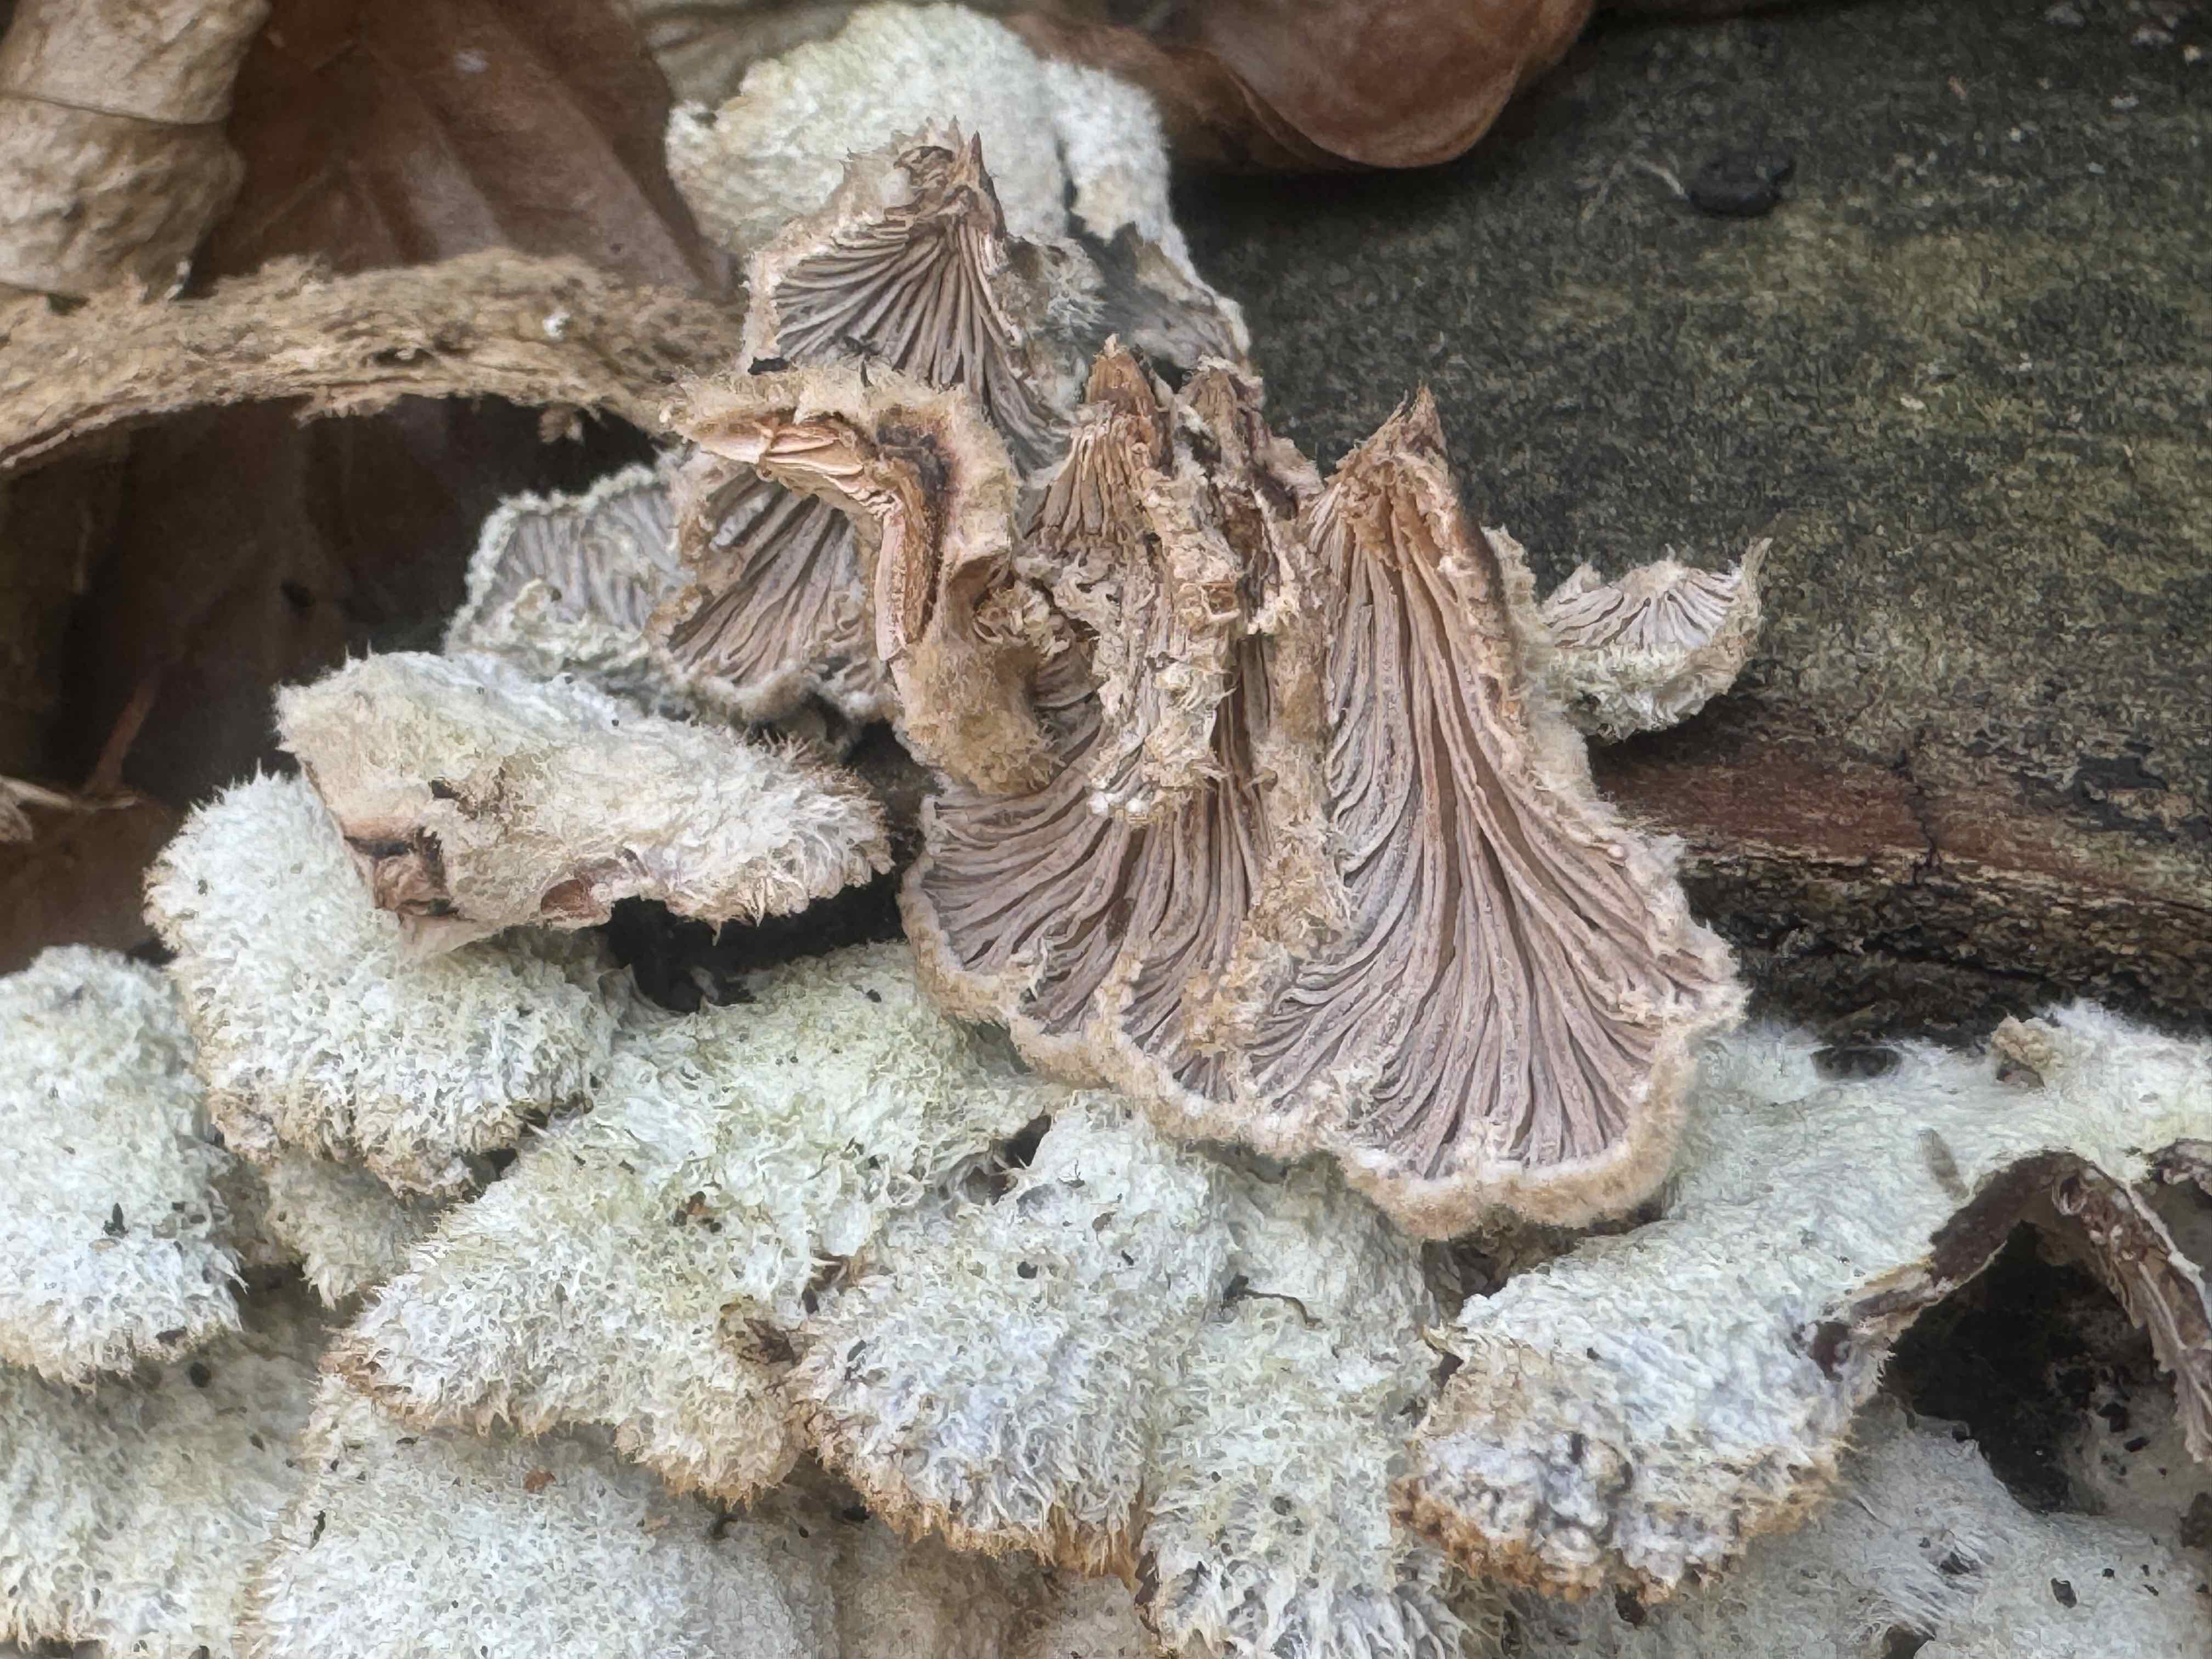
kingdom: Fungi
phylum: Basidiomycota
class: Agaricomycetes
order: Agaricales
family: Schizophyllaceae
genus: Schizophyllum
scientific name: Schizophyllum commune
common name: kløvblad
